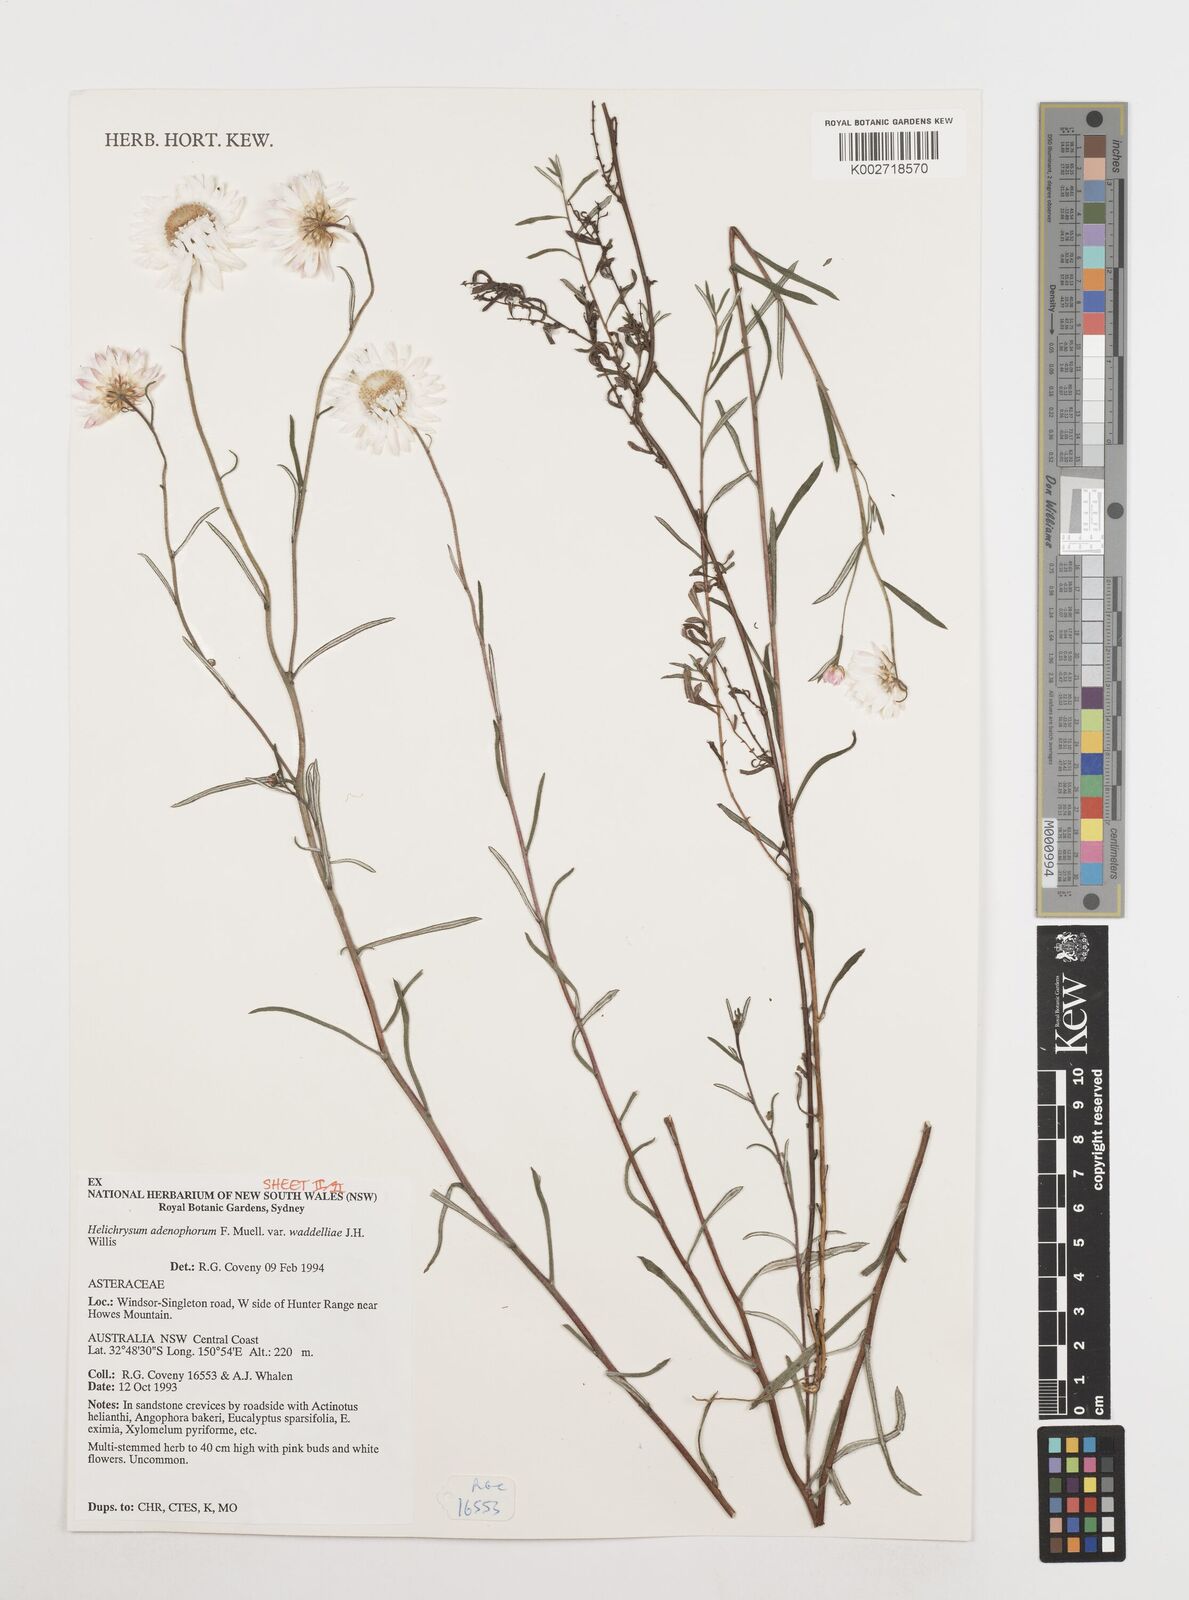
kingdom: Plantae
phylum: Tracheophyta
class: Magnoliopsida
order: Asterales
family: Asteraceae
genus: Coronidium
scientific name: Coronidium waddelliae
